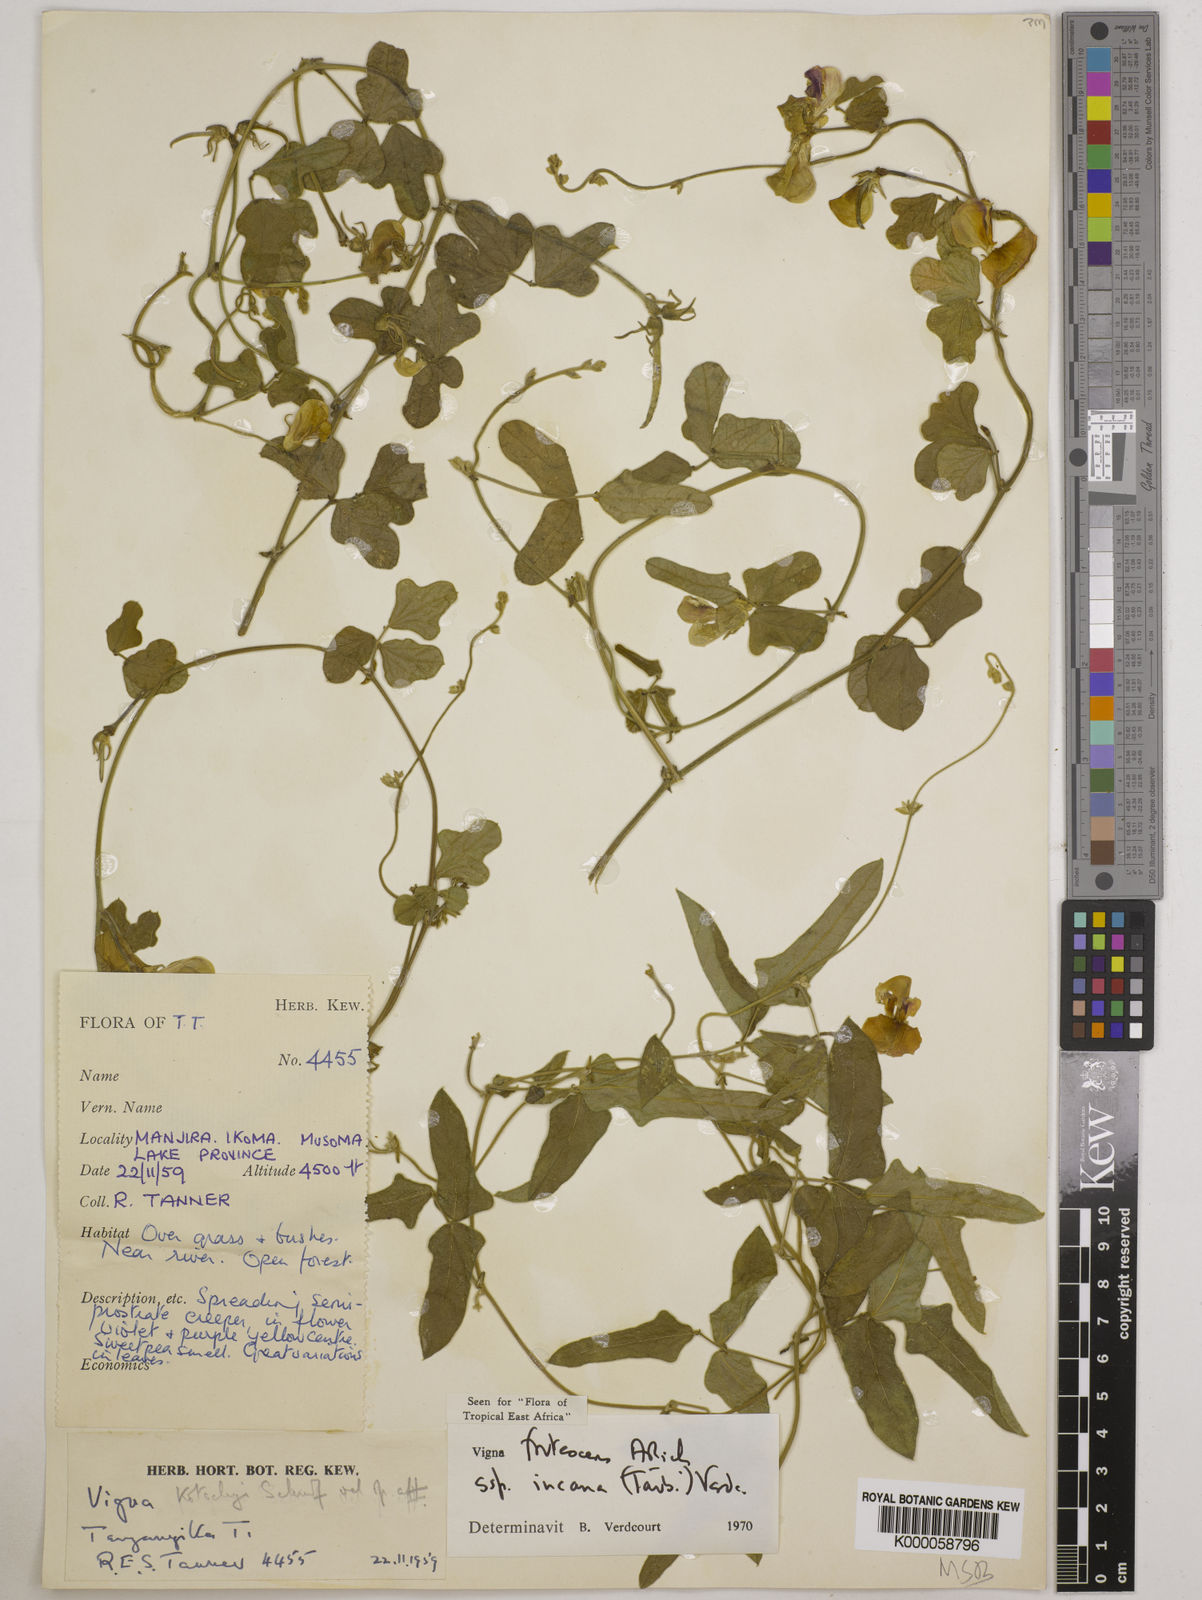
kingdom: Plantae
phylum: Tracheophyta
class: Magnoliopsida
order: Fabales
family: Fabaceae
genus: Vigna
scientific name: Vigna
